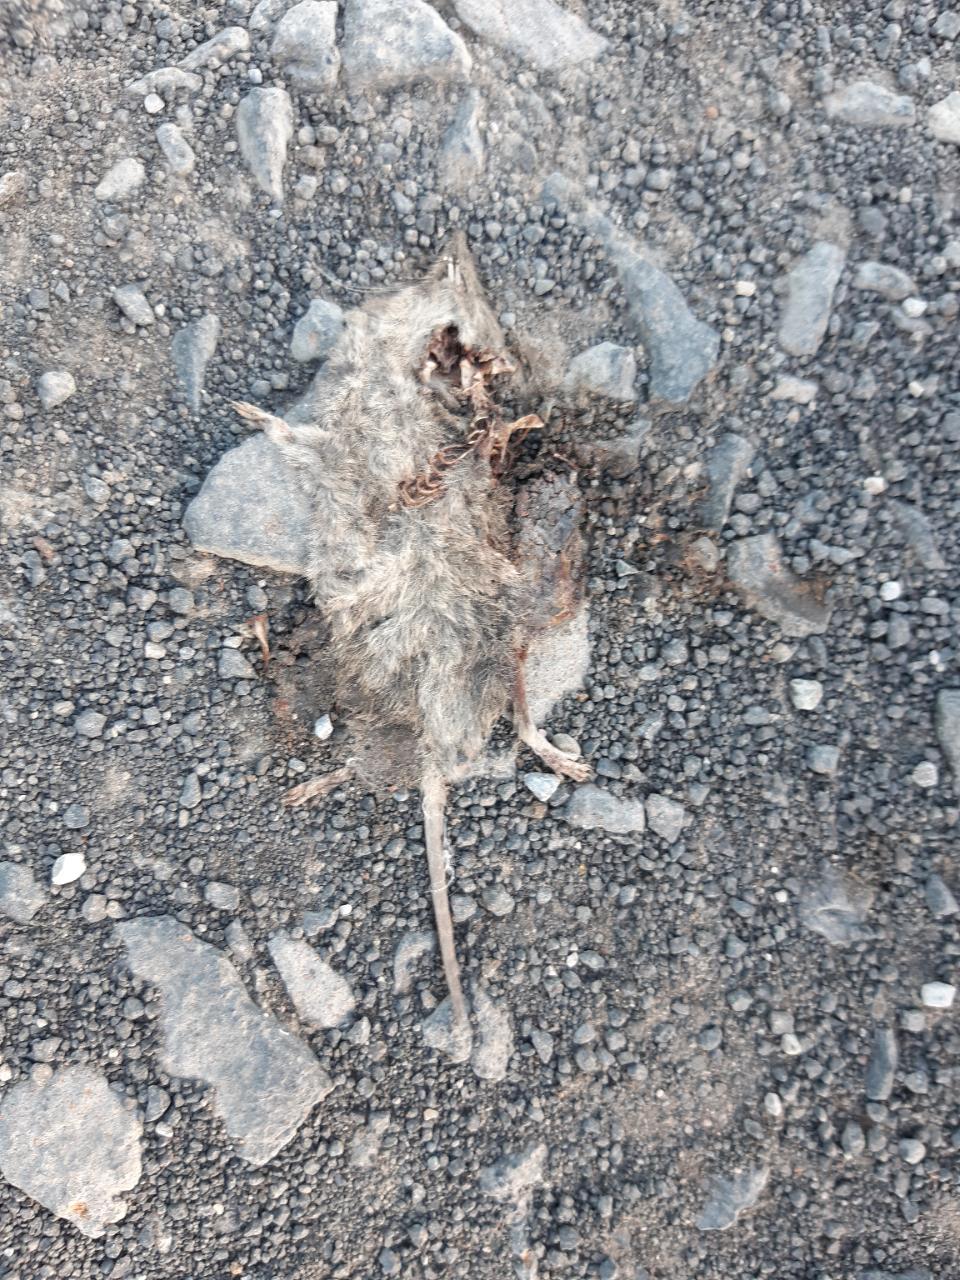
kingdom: Animalia
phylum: Chordata
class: Mammalia
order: Soricomorpha
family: Soricidae
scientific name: Soricidae
